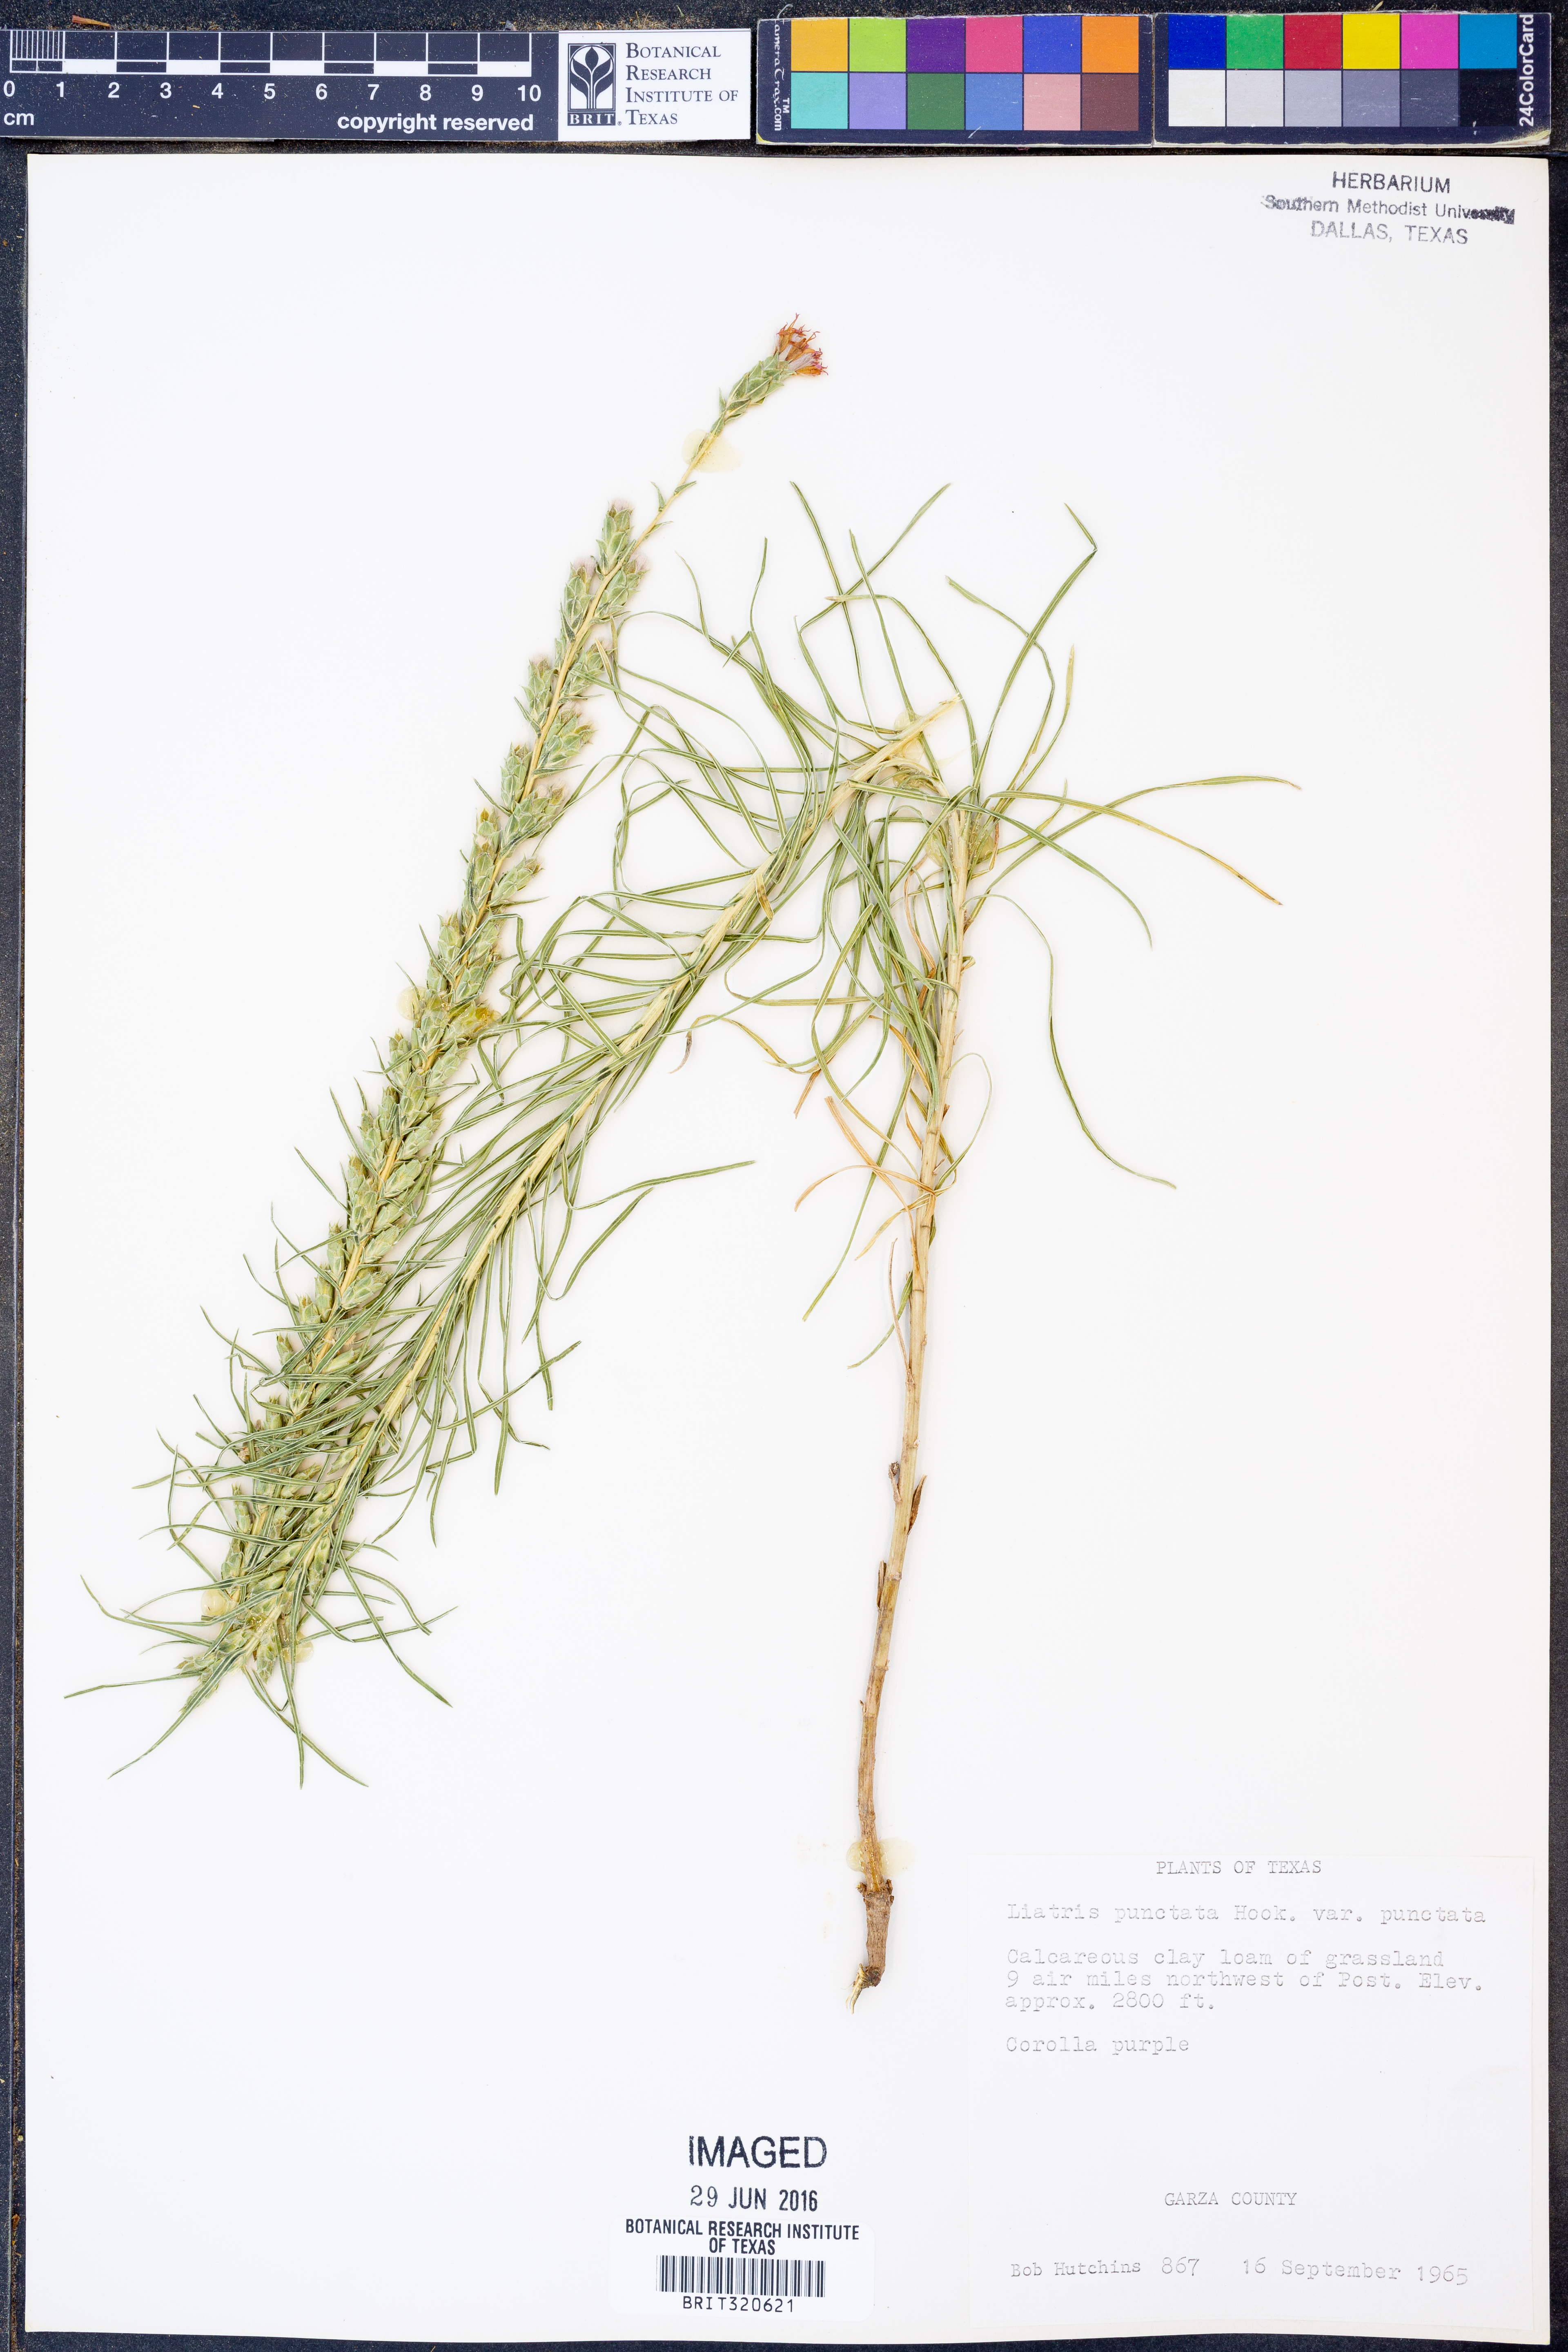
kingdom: Plantae
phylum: Tracheophyta
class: Magnoliopsida
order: Asterales
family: Asteraceae
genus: Liatris
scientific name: Liatris punctata
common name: Dotted gayfeather
